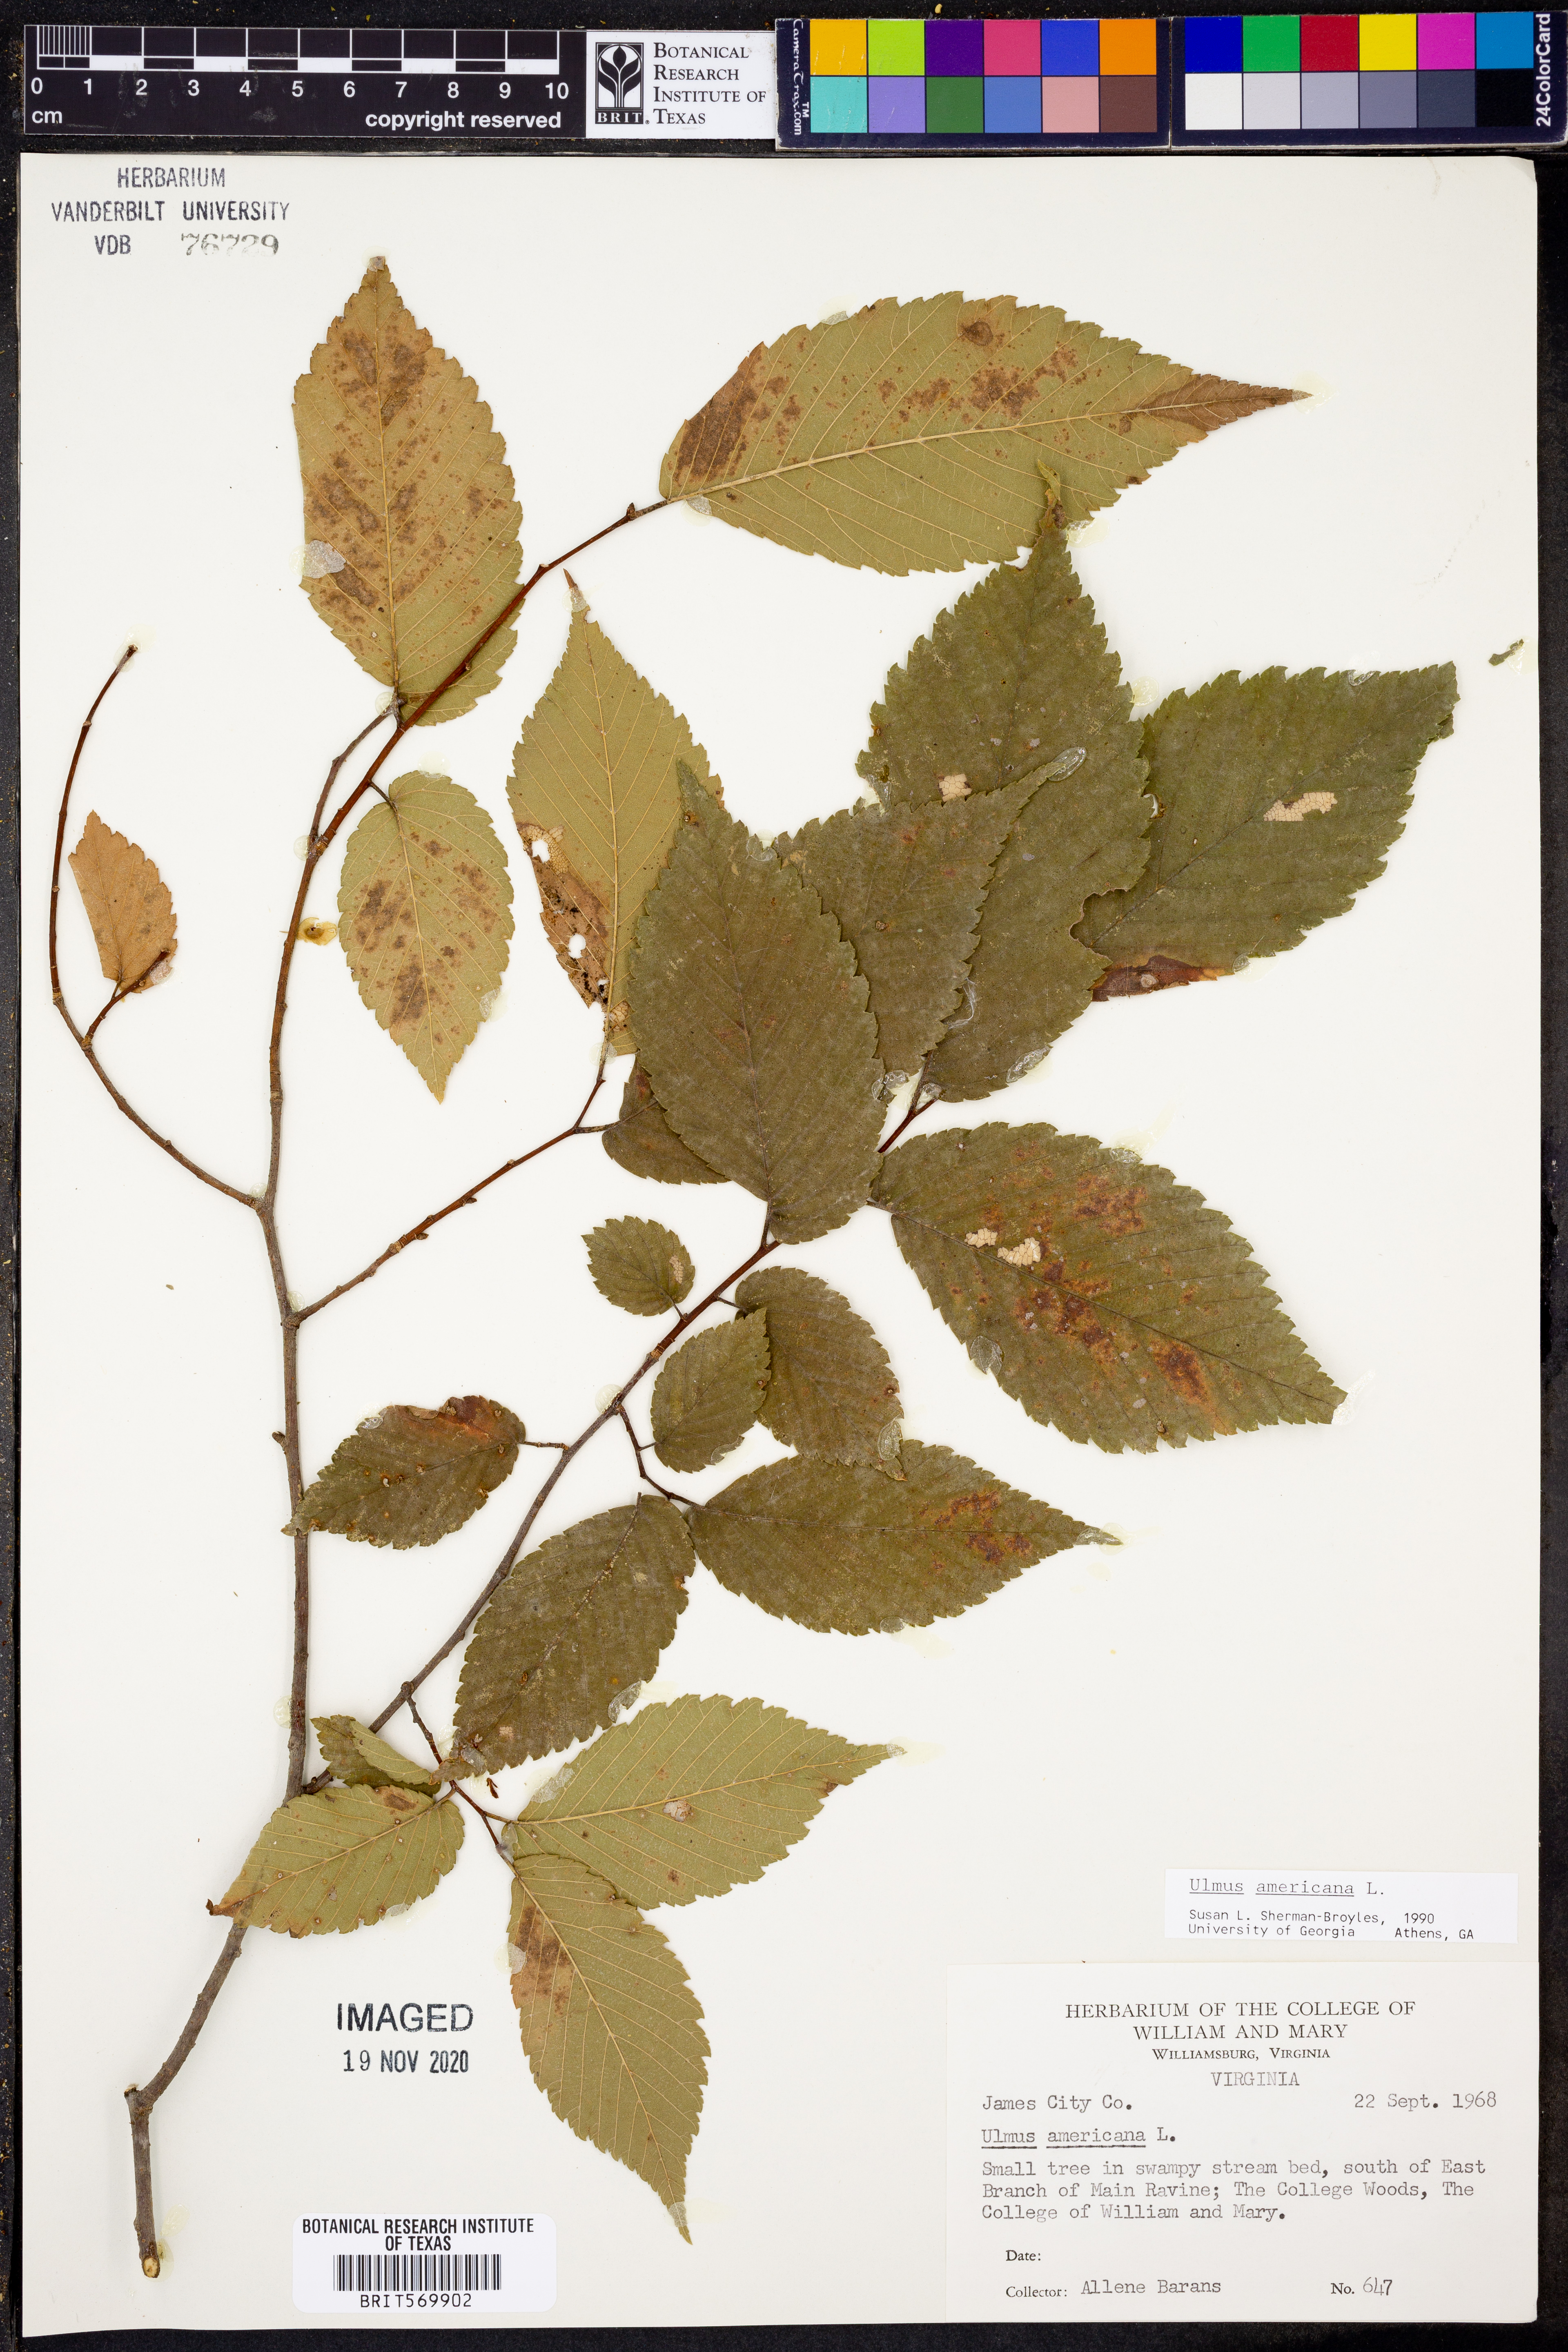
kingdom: Plantae
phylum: Tracheophyta
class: Magnoliopsida
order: Rosales
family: Ulmaceae
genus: Ulmus
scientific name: Ulmus americana
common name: American elm
